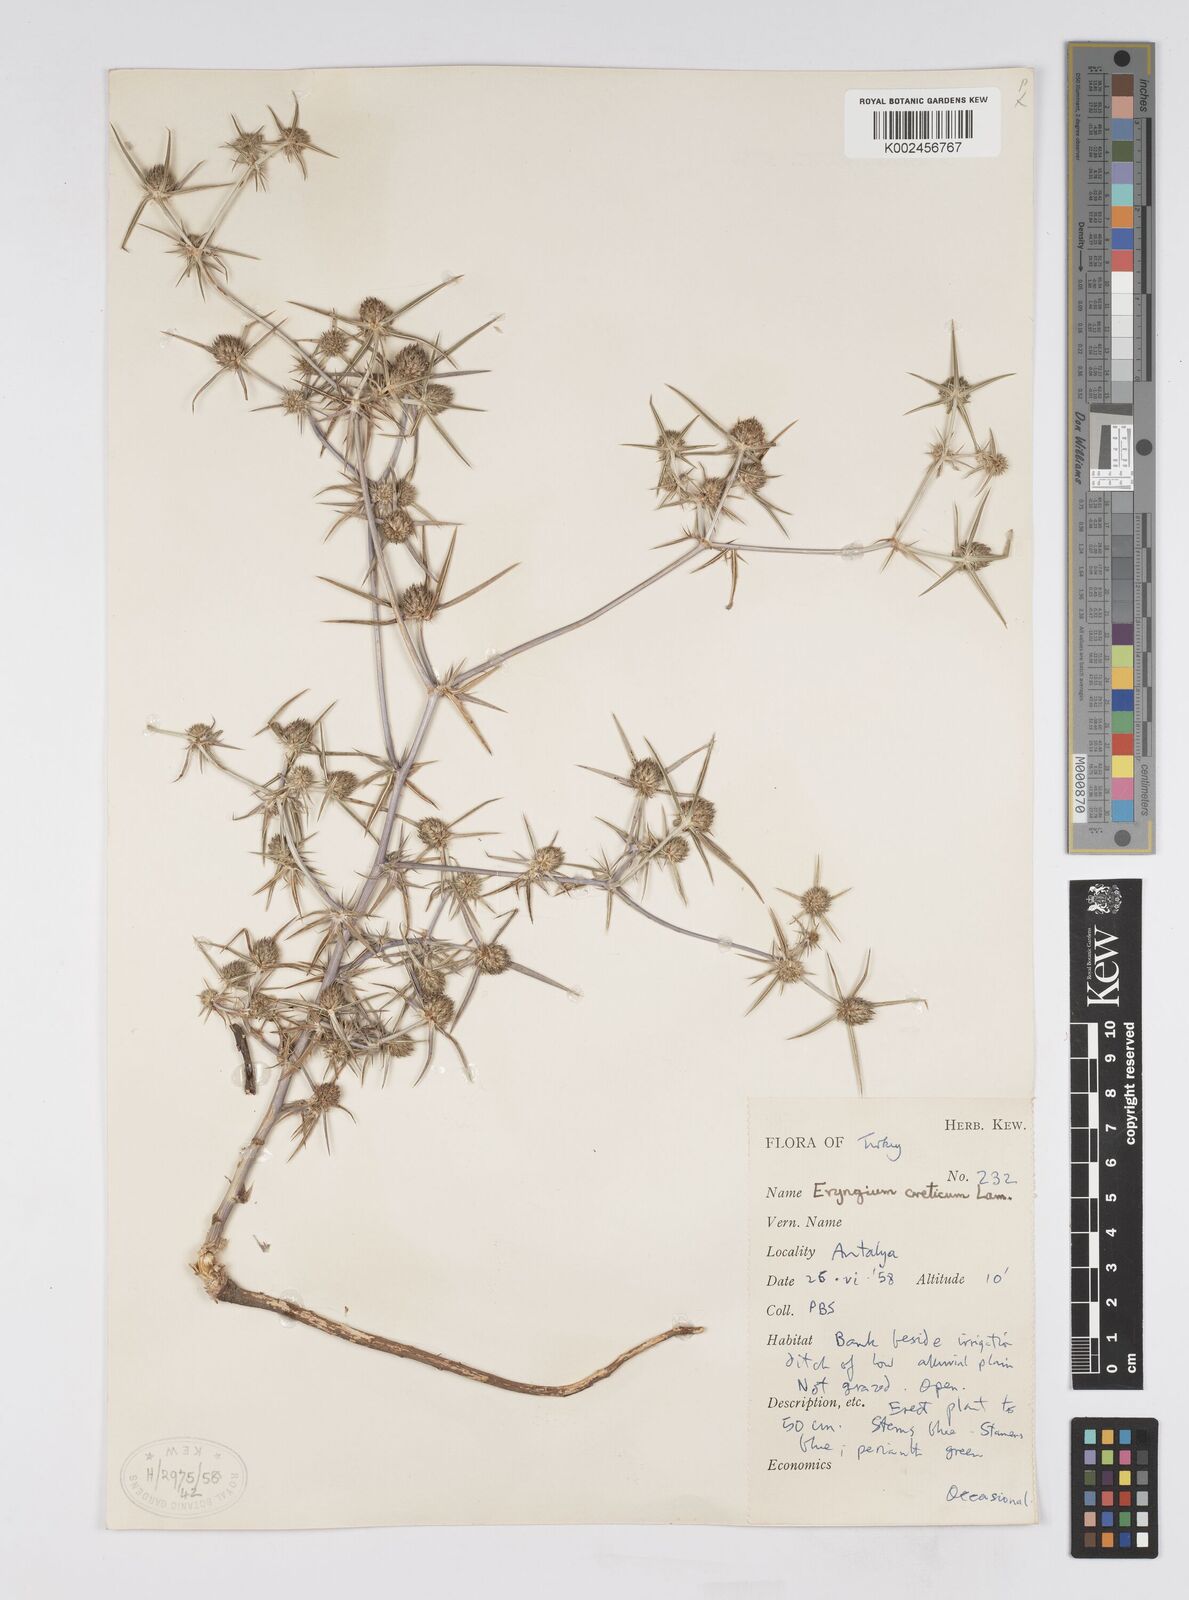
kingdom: Plantae
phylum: Tracheophyta
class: Magnoliopsida
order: Apiales
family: Apiaceae
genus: Eryngium
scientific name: Eryngium creticum
